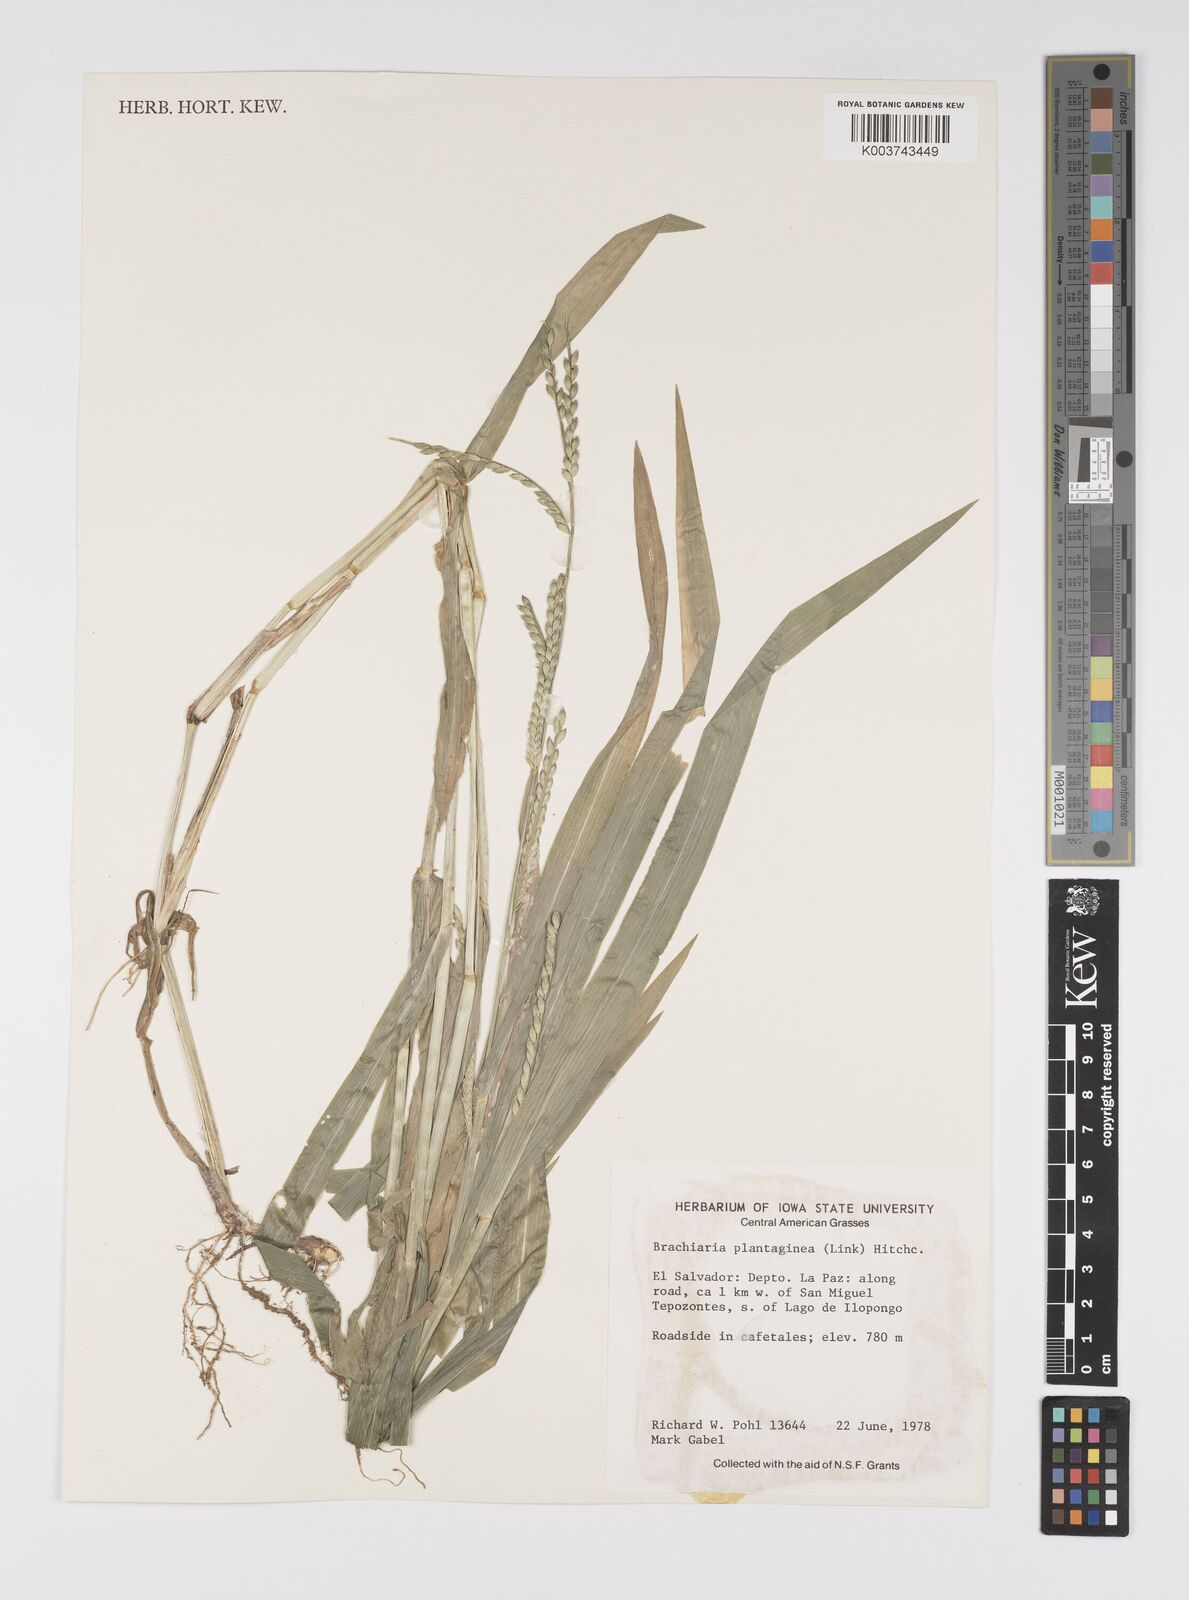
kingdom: Plantae
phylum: Tracheophyta
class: Liliopsida
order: Poales
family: Poaceae
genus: Urochloa
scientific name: Urochloa plantaginea
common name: Plantain signalgrass
